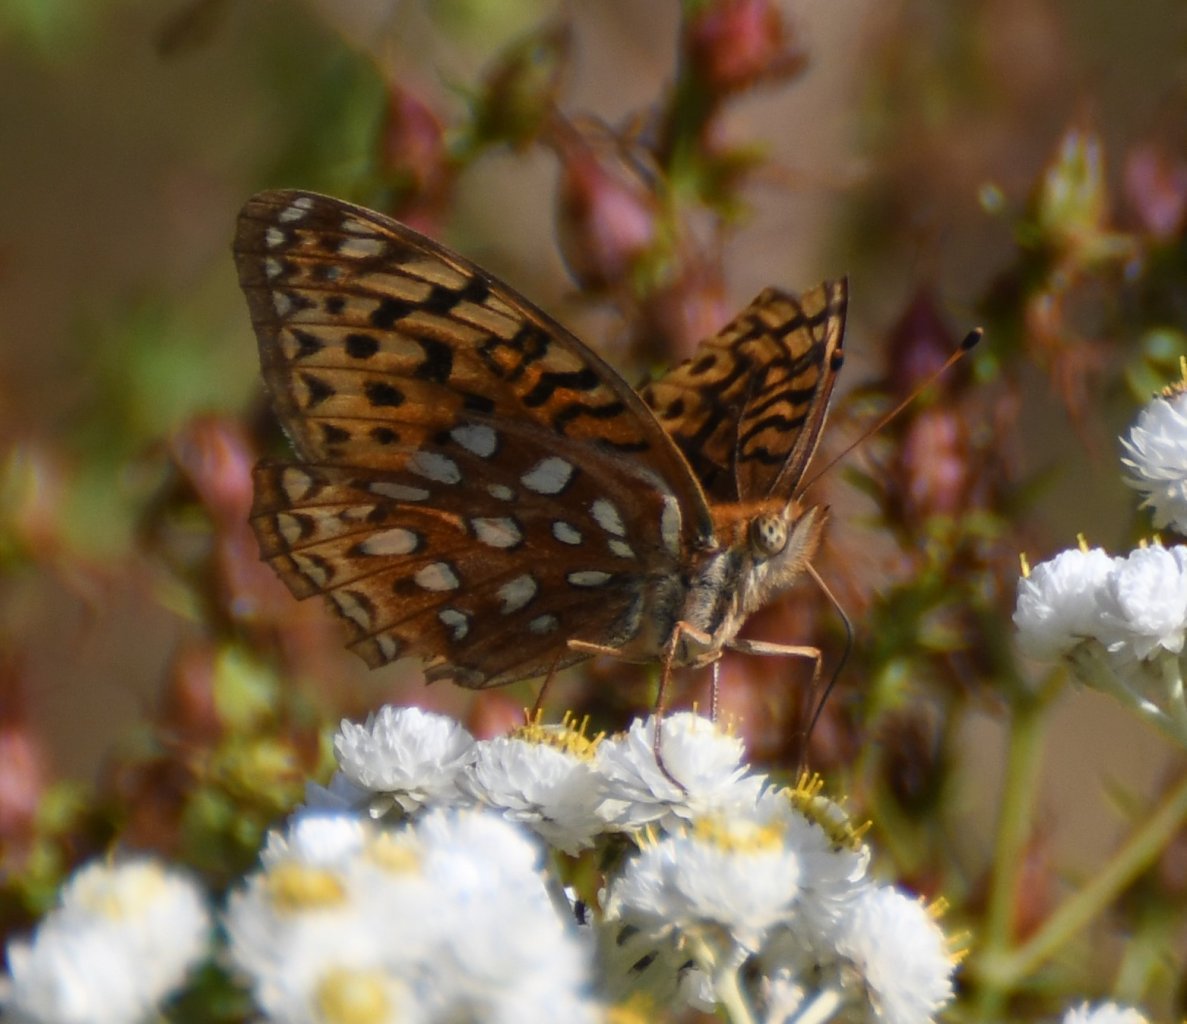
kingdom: Animalia
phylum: Arthropoda
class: Insecta
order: Lepidoptera
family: Nymphalidae
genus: Speyeria
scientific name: Speyeria aphrodite
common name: Aphrodite Fritillary
